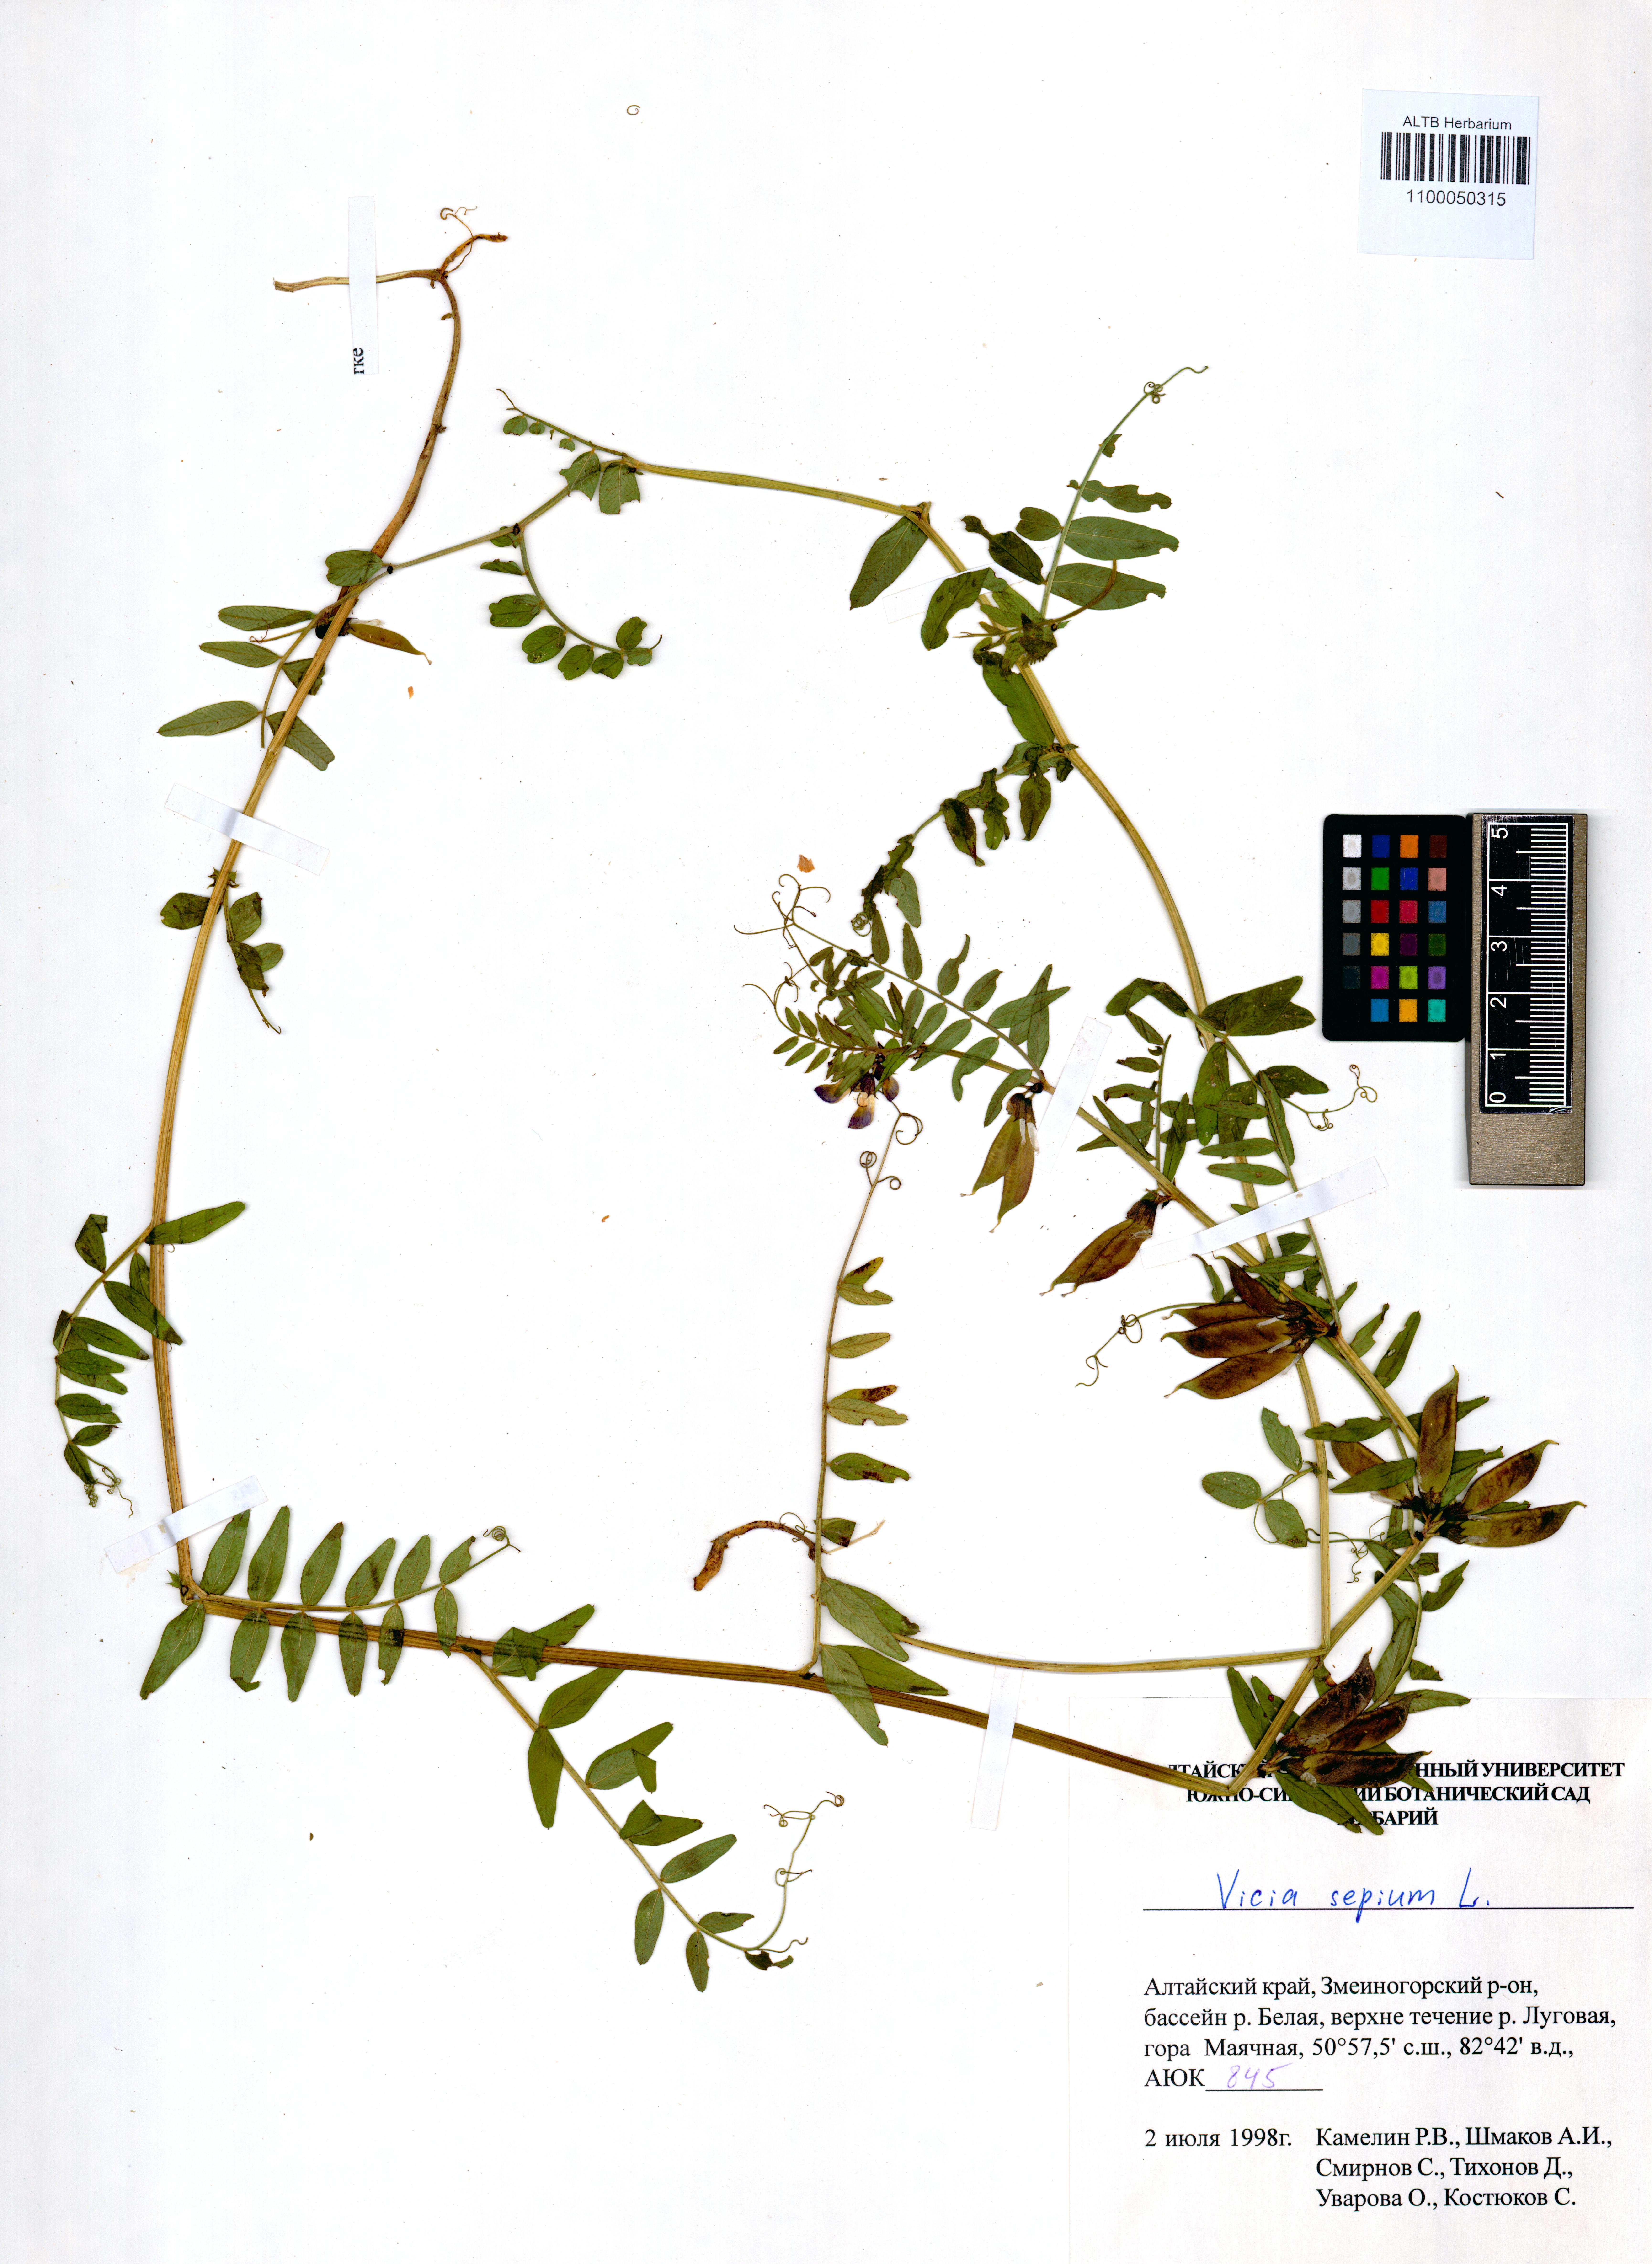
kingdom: Plantae
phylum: Tracheophyta
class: Magnoliopsida
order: Fabales
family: Fabaceae
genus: Vicia
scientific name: Vicia sepium
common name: Bush vetch
